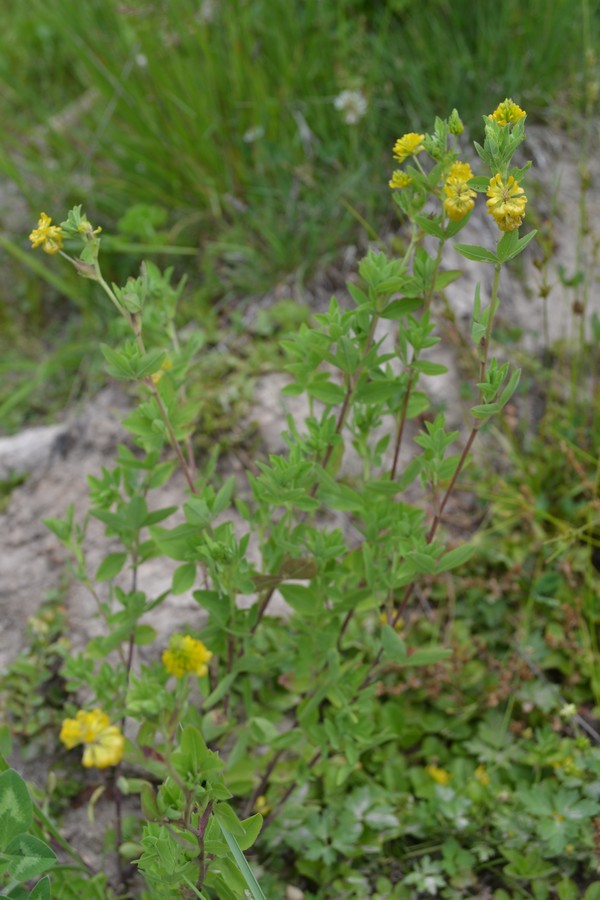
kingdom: Plantae
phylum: Tracheophyta
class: Magnoliopsida
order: Fabales
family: Fabaceae
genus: Trifolium
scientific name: Trifolium aureum
